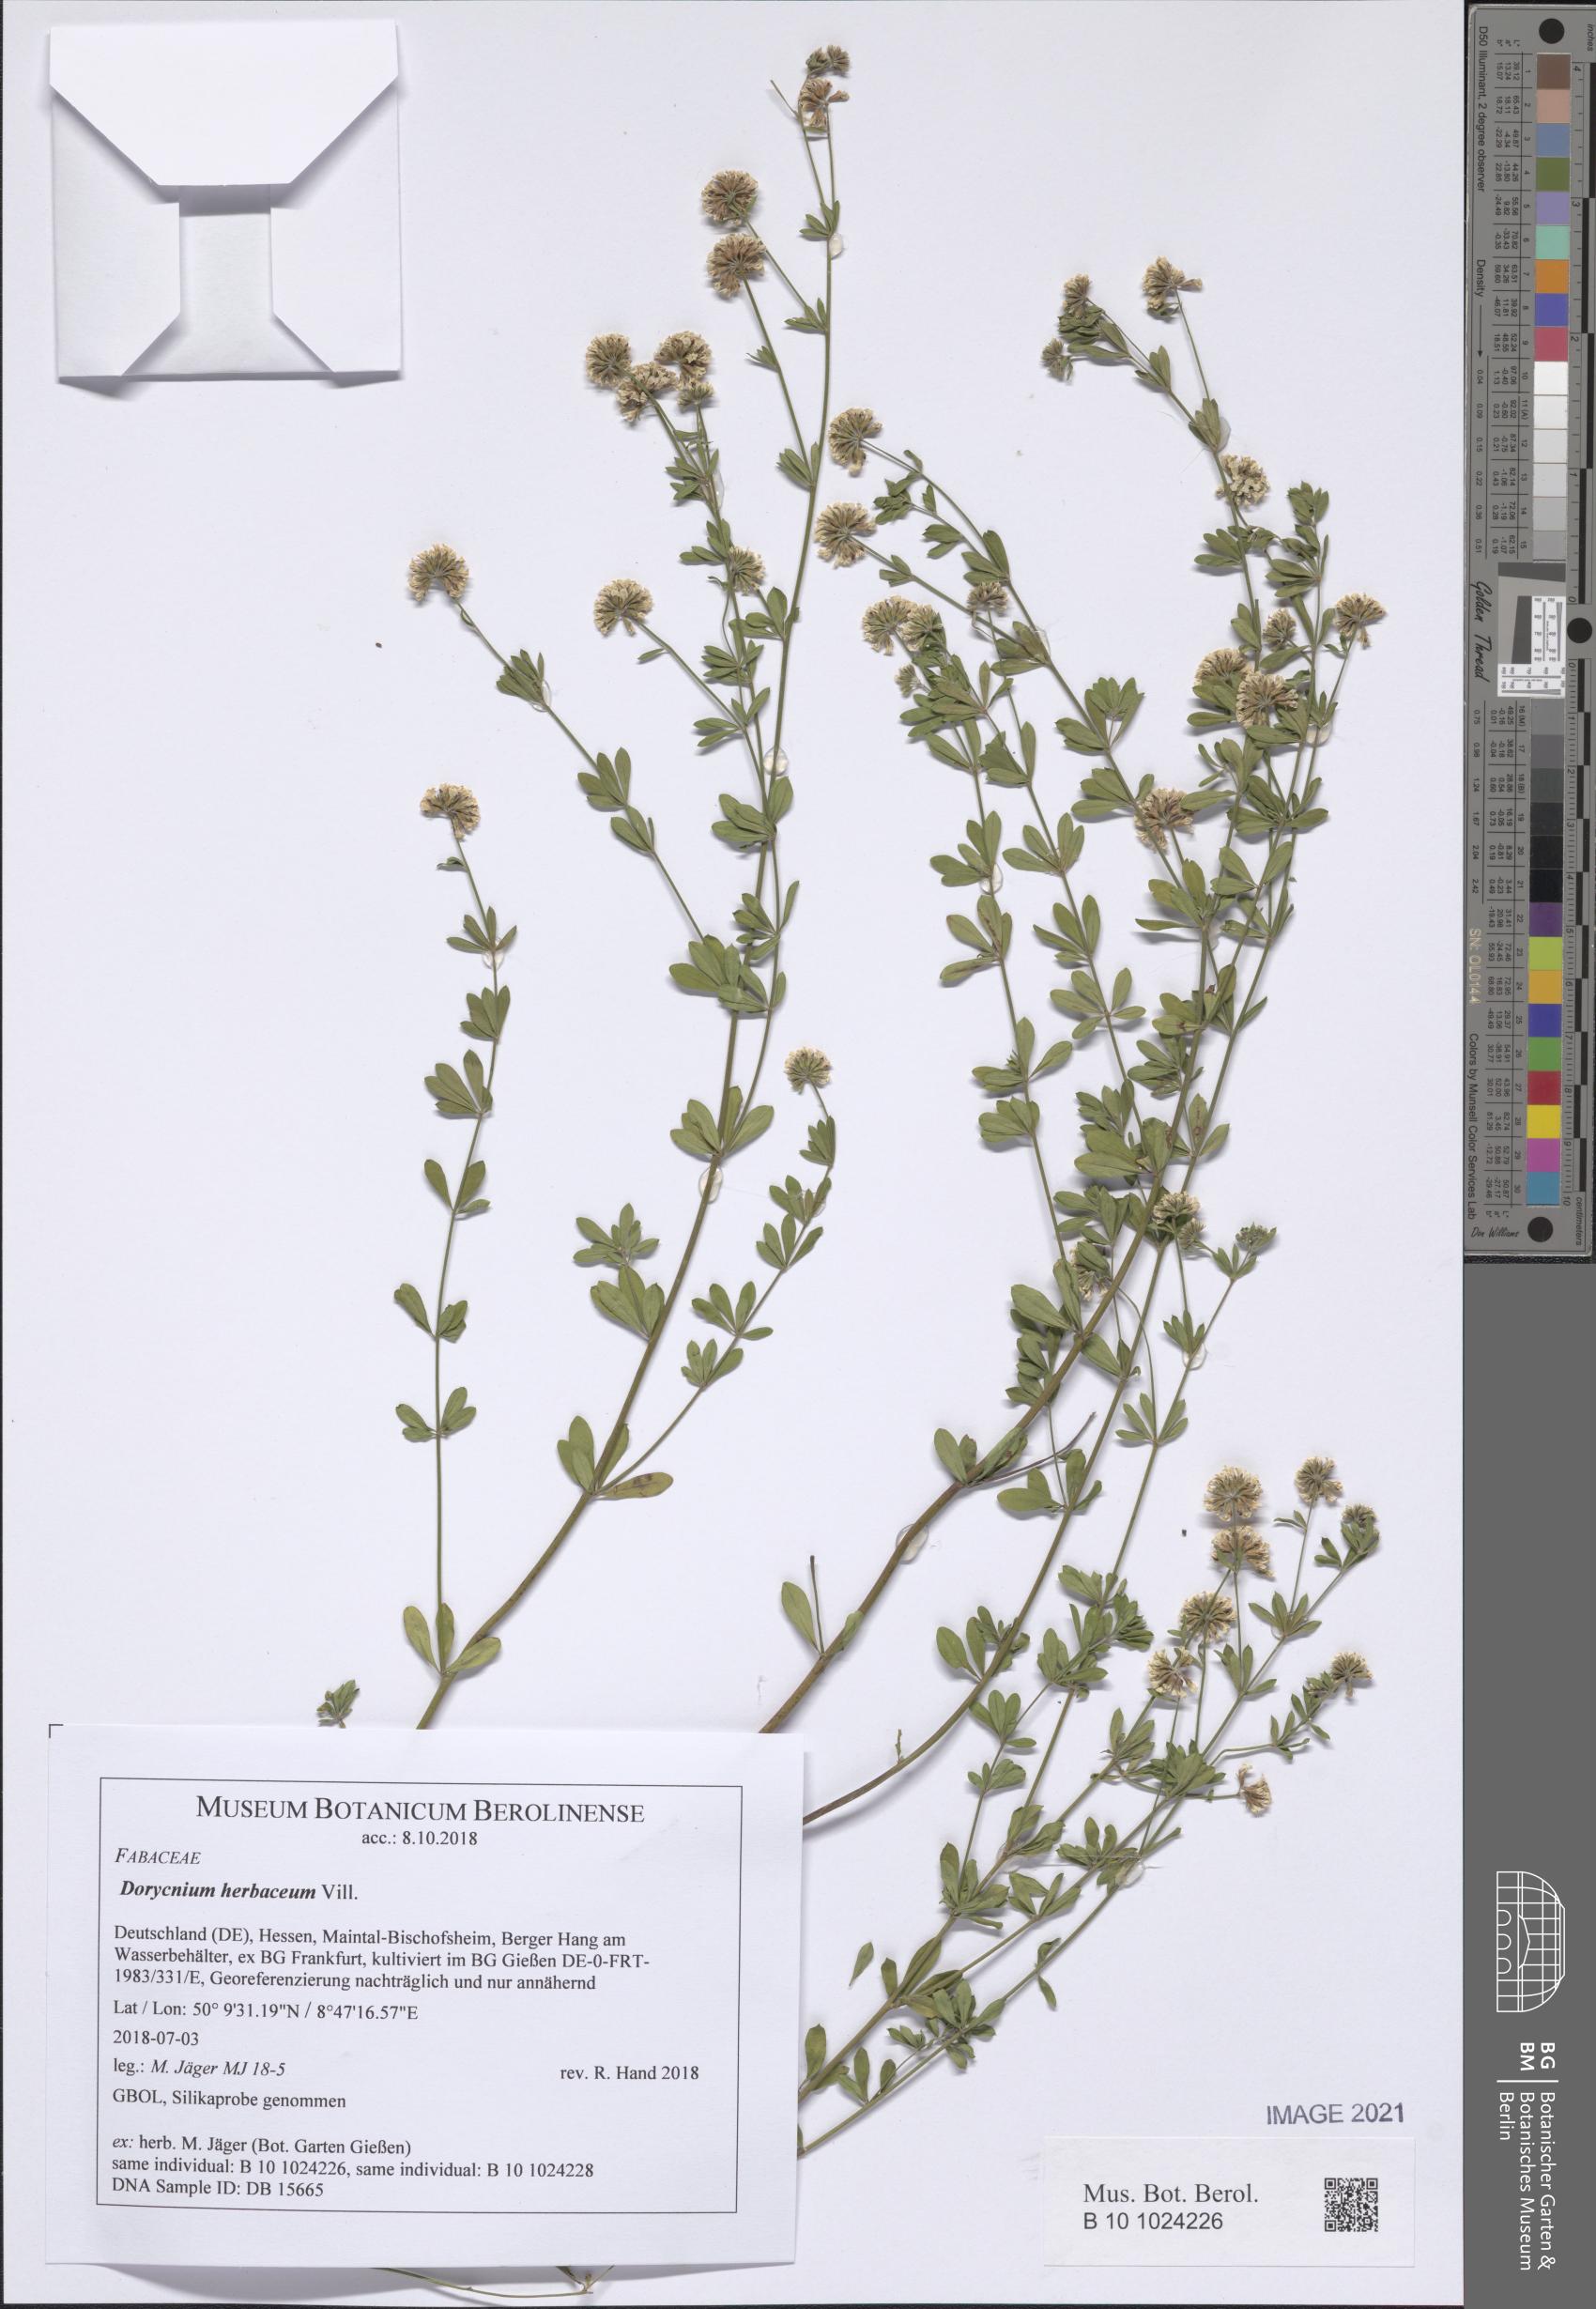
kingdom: Plantae
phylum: Tracheophyta
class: Magnoliopsida
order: Fabales
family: Fabaceae
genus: Lotus
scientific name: Lotus herbaceus
